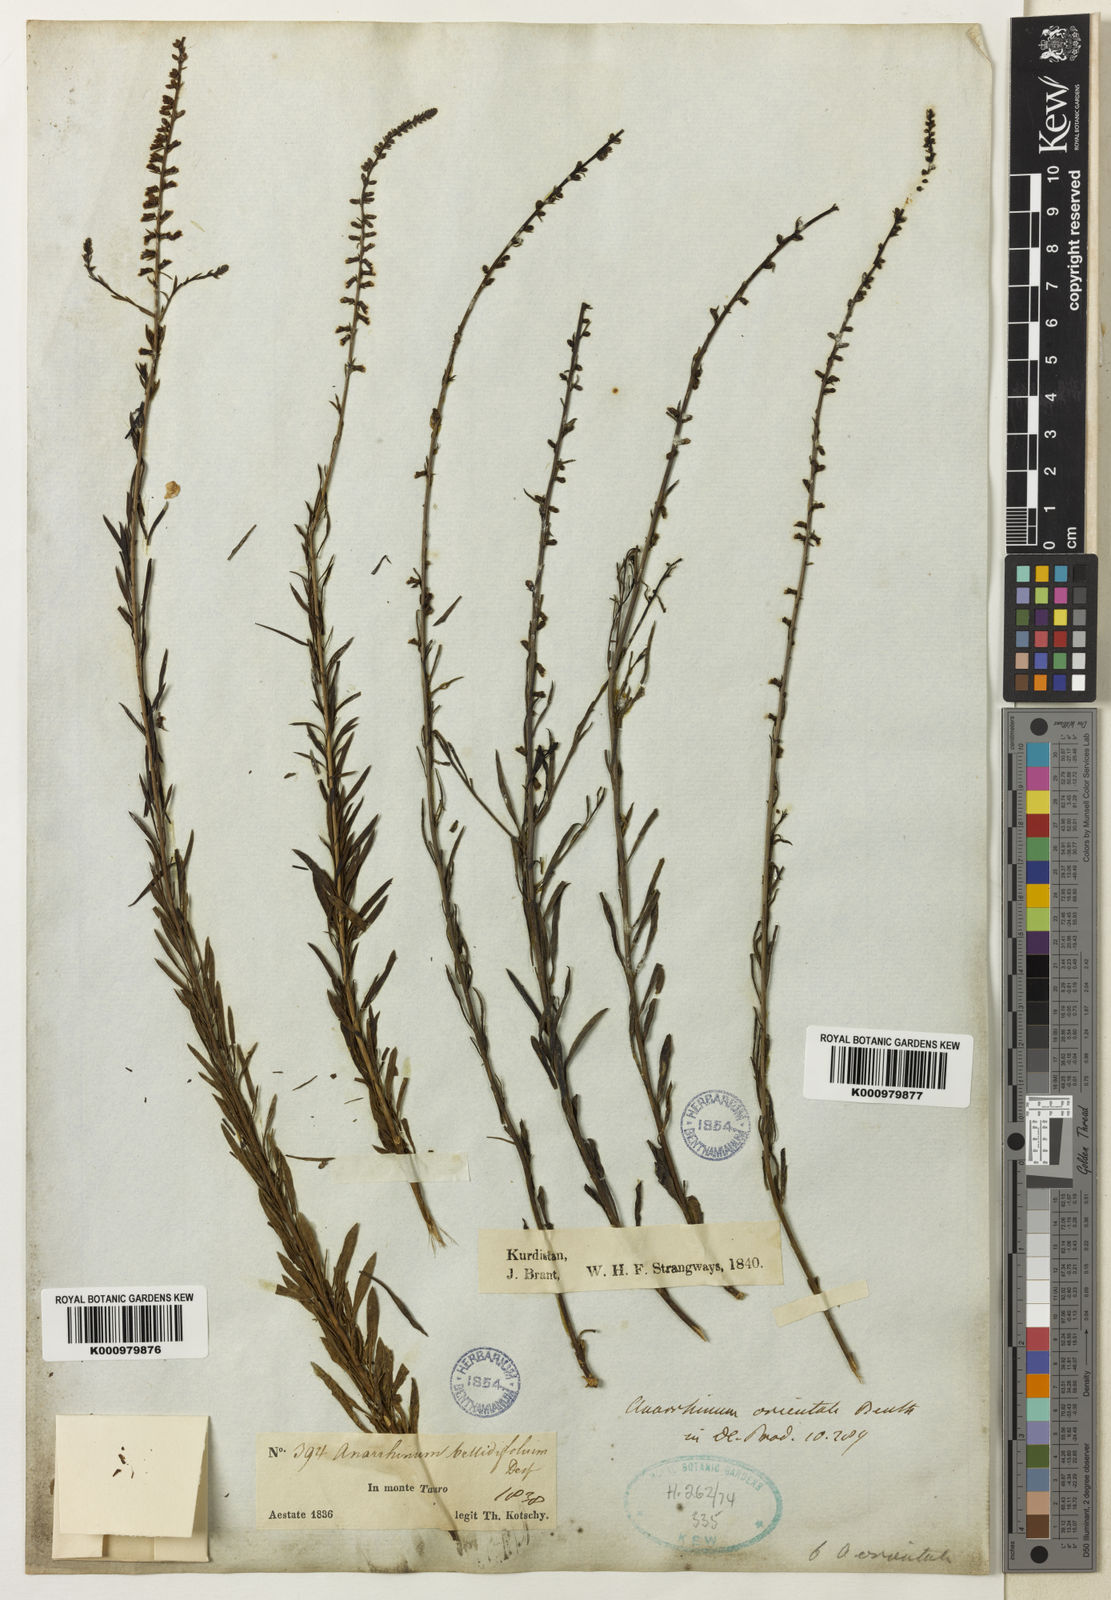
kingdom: Plantae
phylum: Tracheophyta
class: Magnoliopsida
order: Lamiales
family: Plantaginaceae
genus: Anarrhinum
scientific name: Anarrhinum forskaohlii
